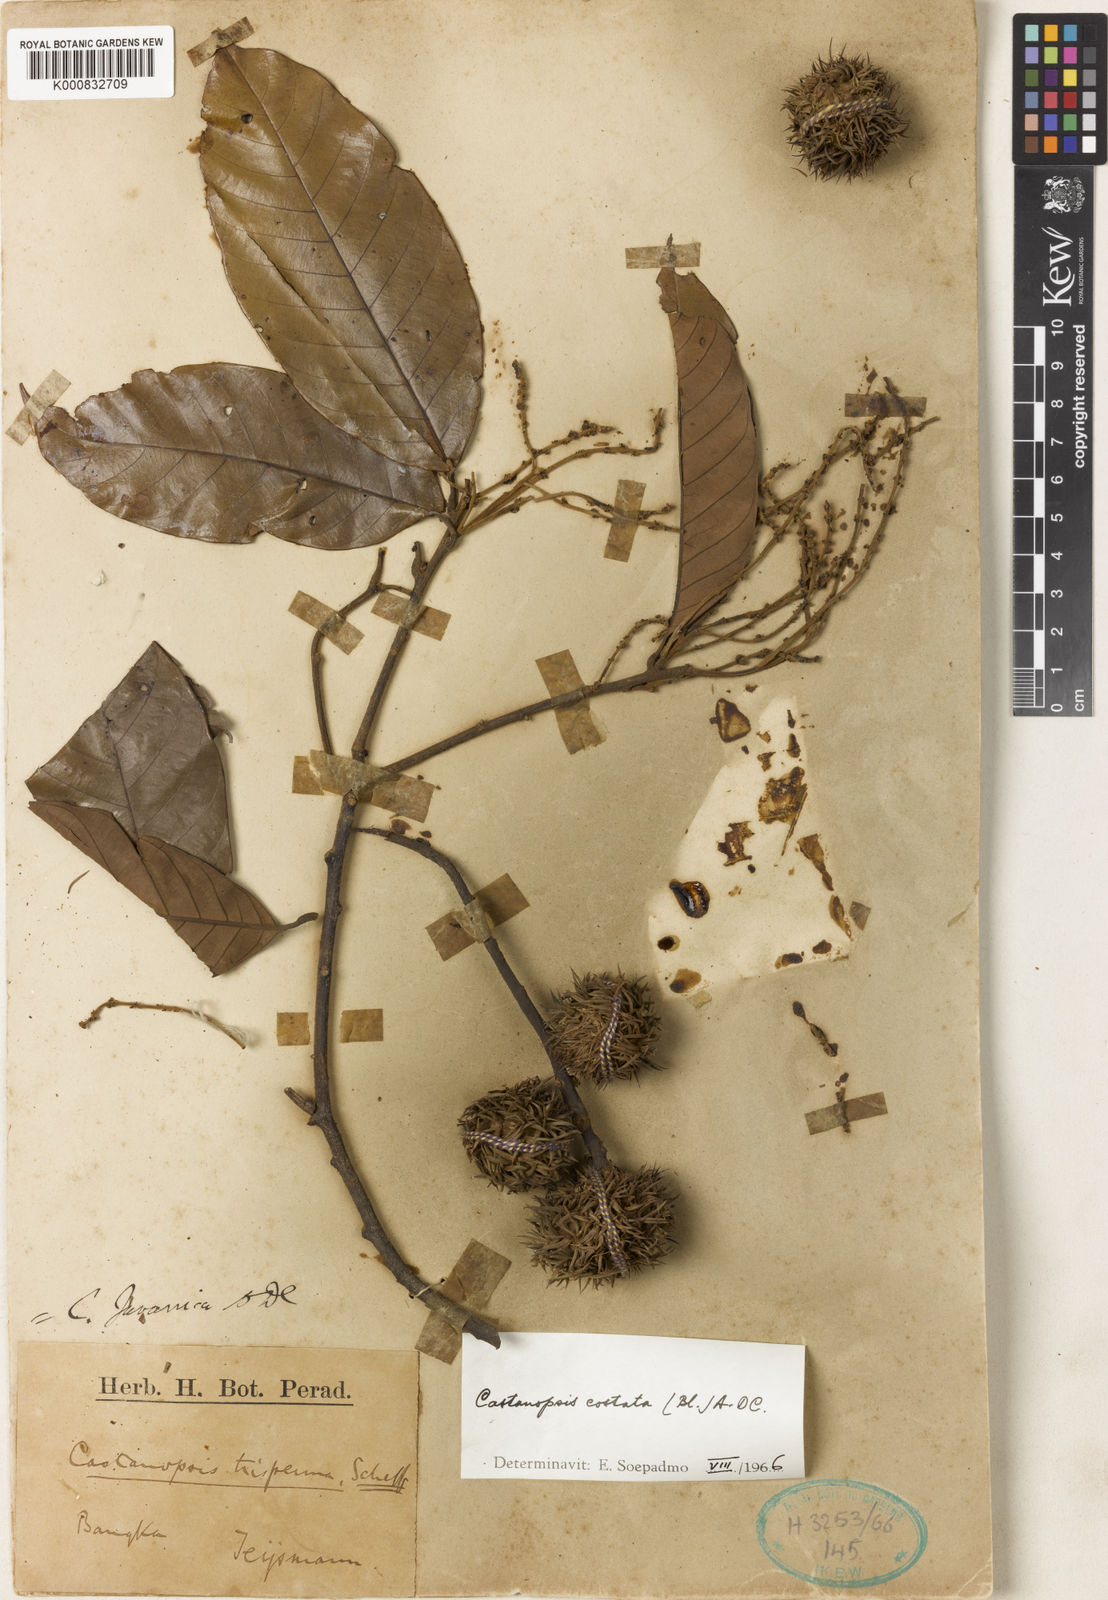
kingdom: Plantae
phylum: Tracheophyta
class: Magnoliopsida
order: Fagales
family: Fagaceae
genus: Castanopsis
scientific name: Castanopsis costata
